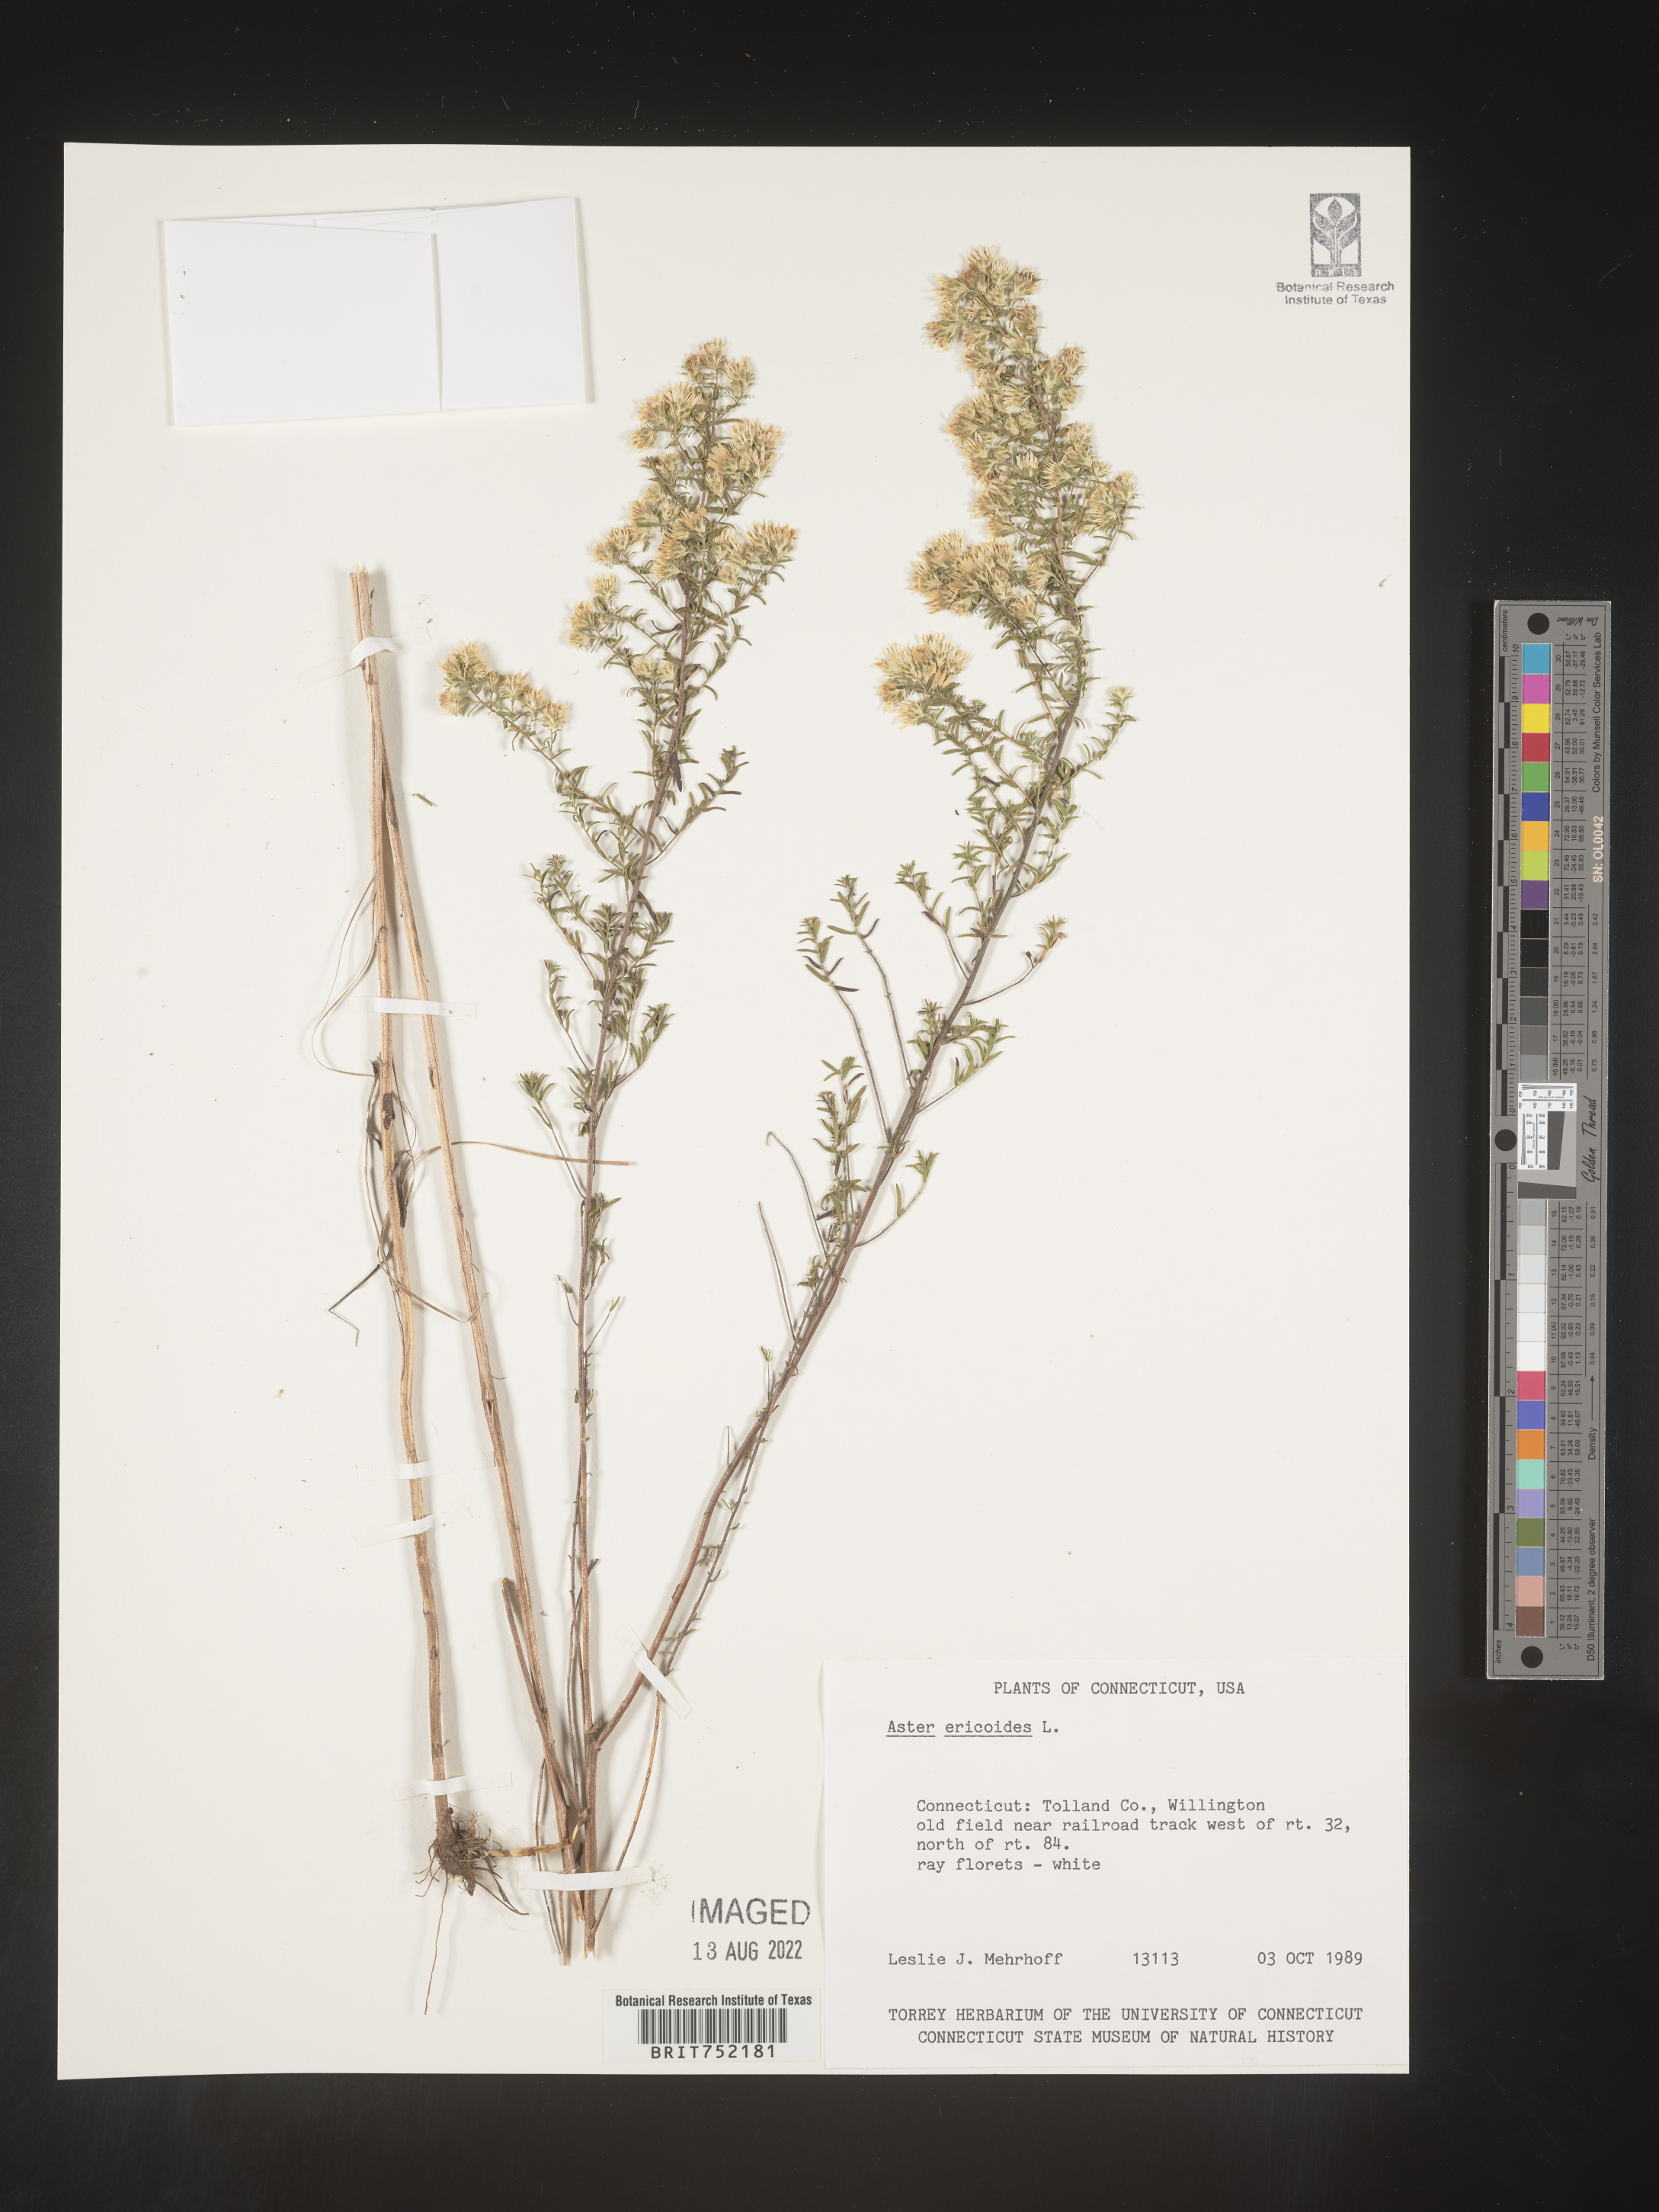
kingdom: Plantae
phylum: Tracheophyta
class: Magnoliopsida
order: Asterales
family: Asteraceae
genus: Symphyotrichum
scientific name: Symphyotrichum ericoides
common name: Heath aster
